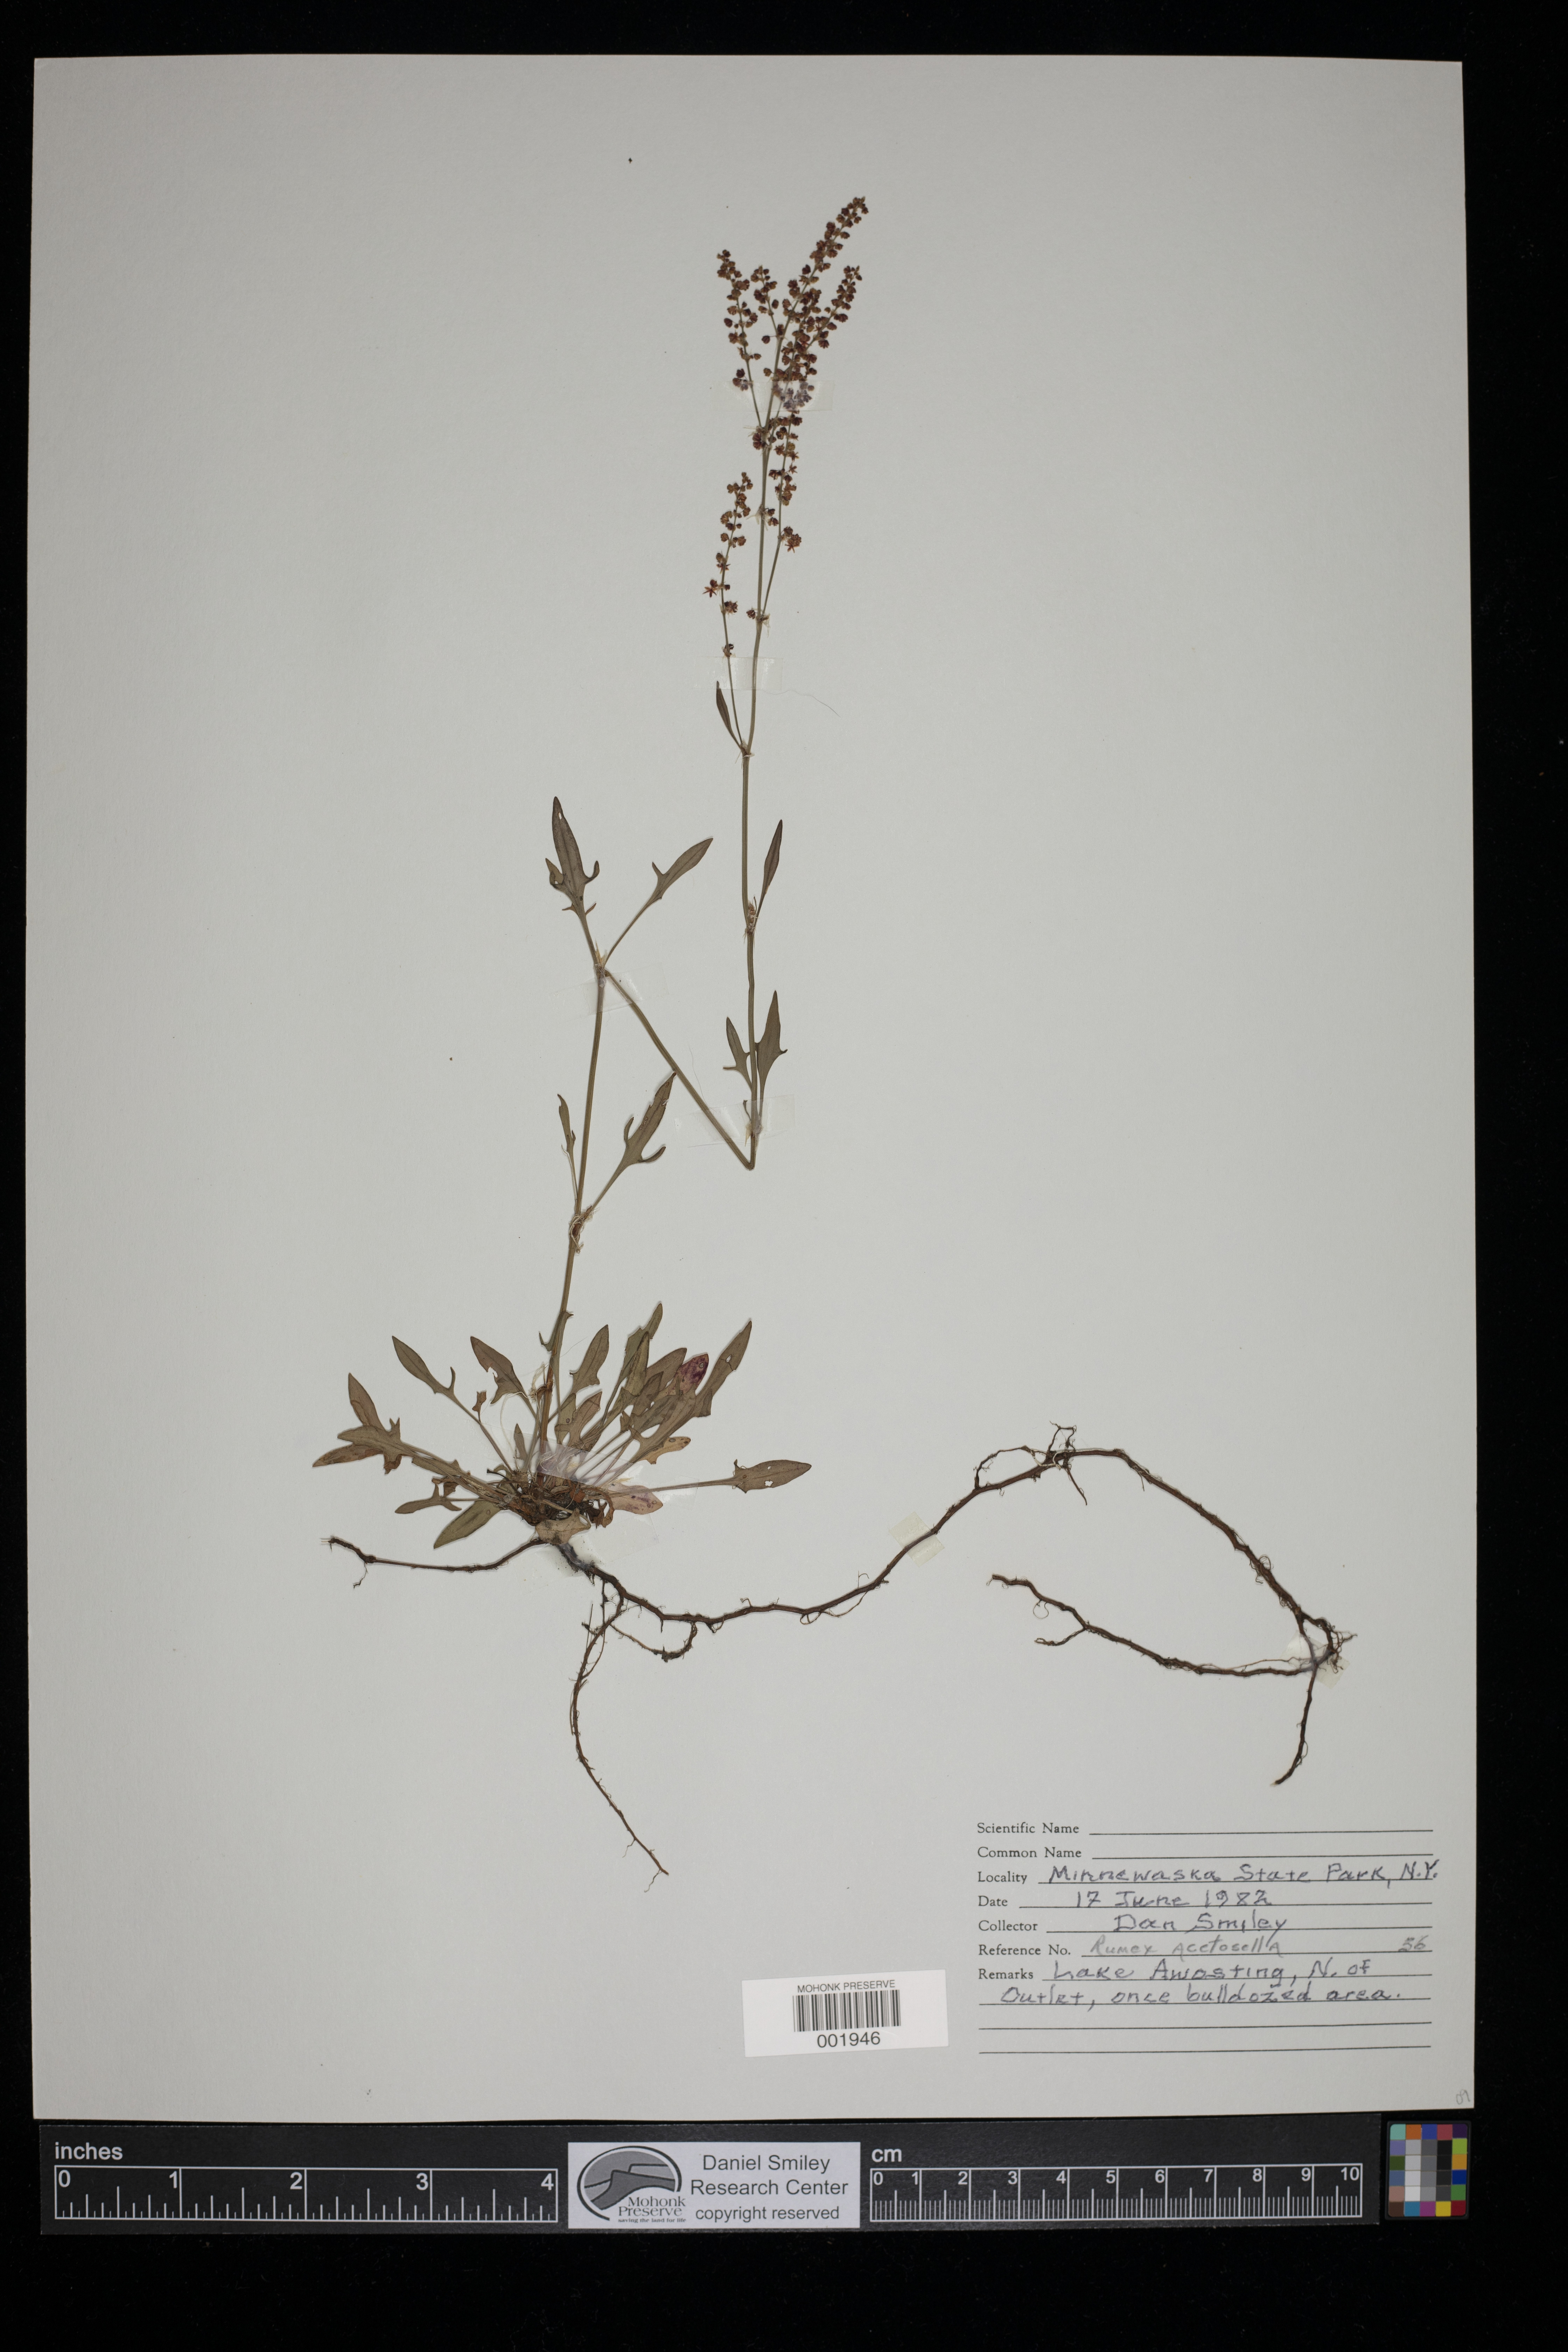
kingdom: Plantae
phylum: Tracheophyta
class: Magnoliopsida
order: Caryophyllales
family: Polygonaceae
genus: Rumex
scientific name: Rumex acetosella
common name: Common sheep sorrel
